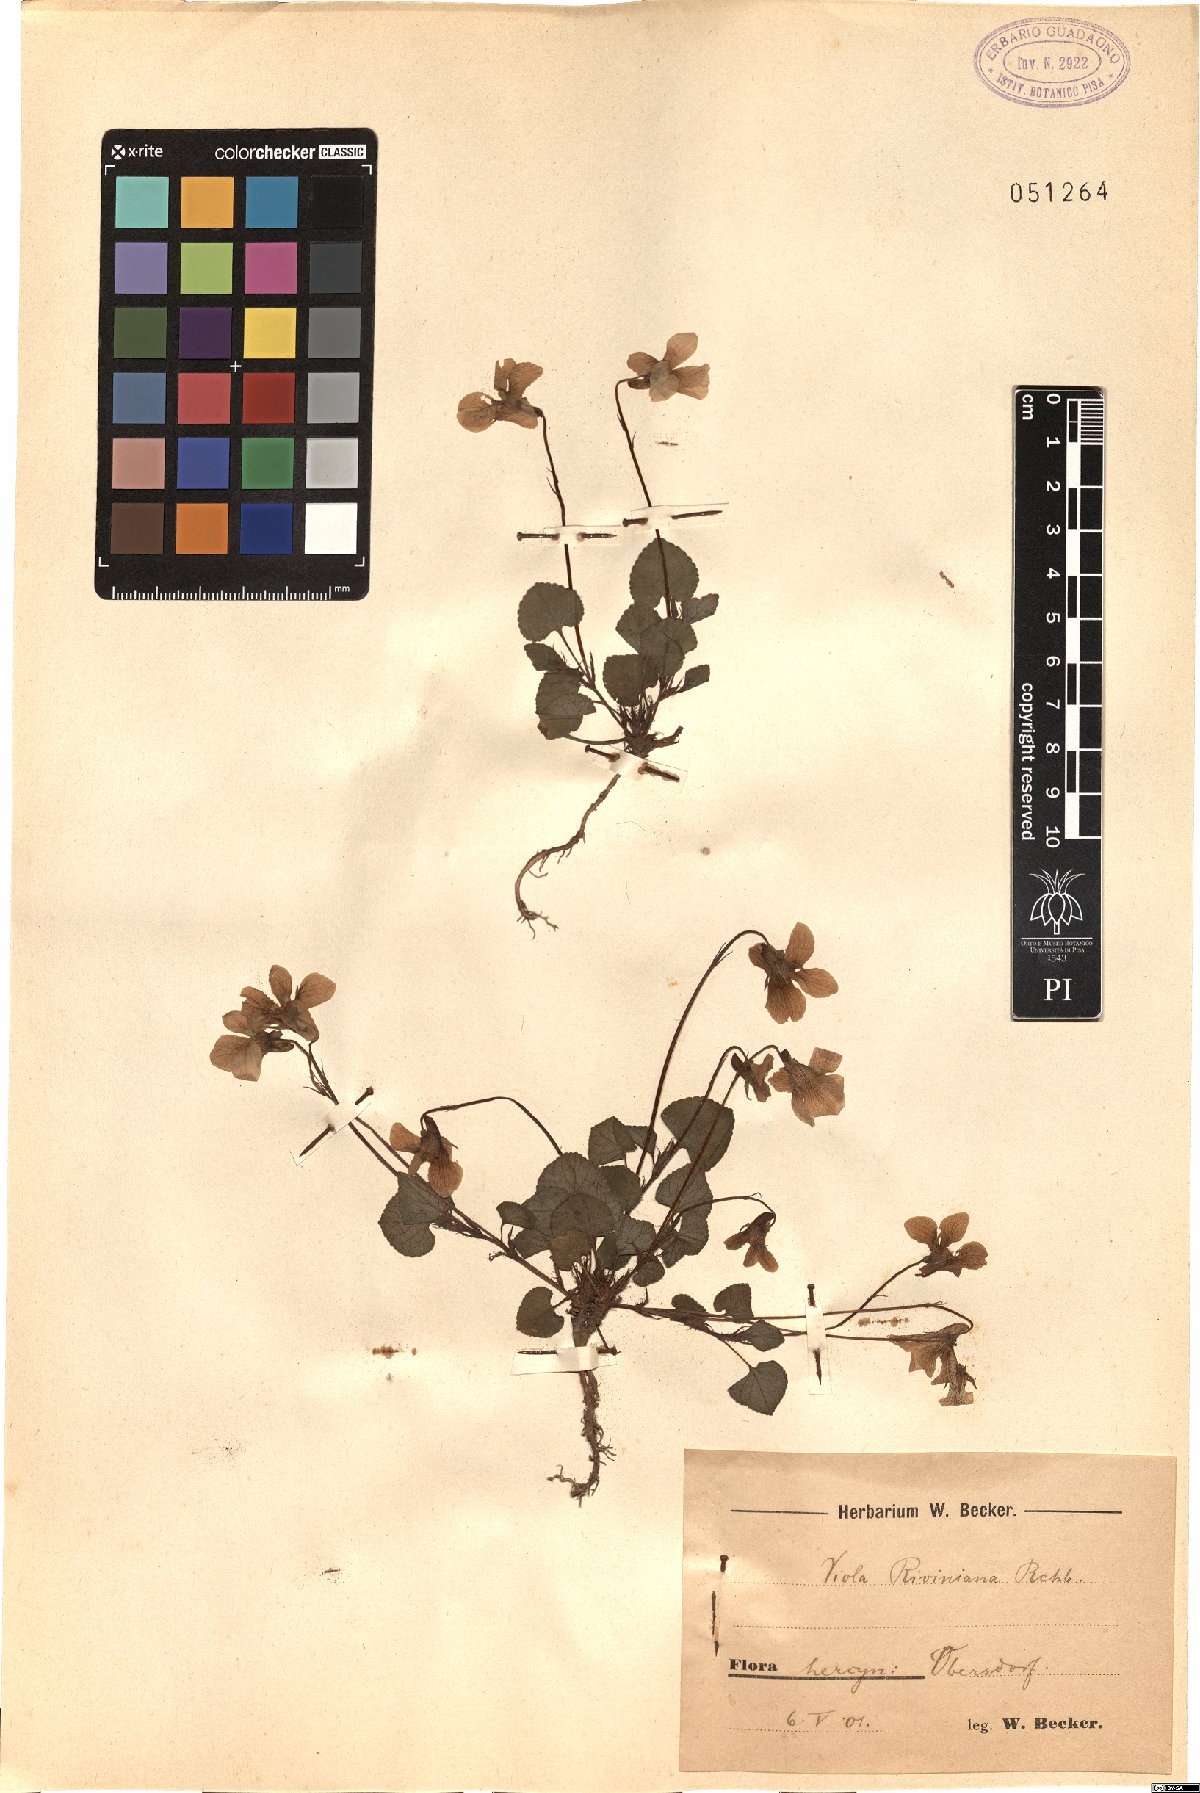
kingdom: Plantae
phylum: Tracheophyta
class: Magnoliopsida
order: Malpighiales
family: Violaceae
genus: Viola
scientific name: Viola riviniana
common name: Common dog-violet
